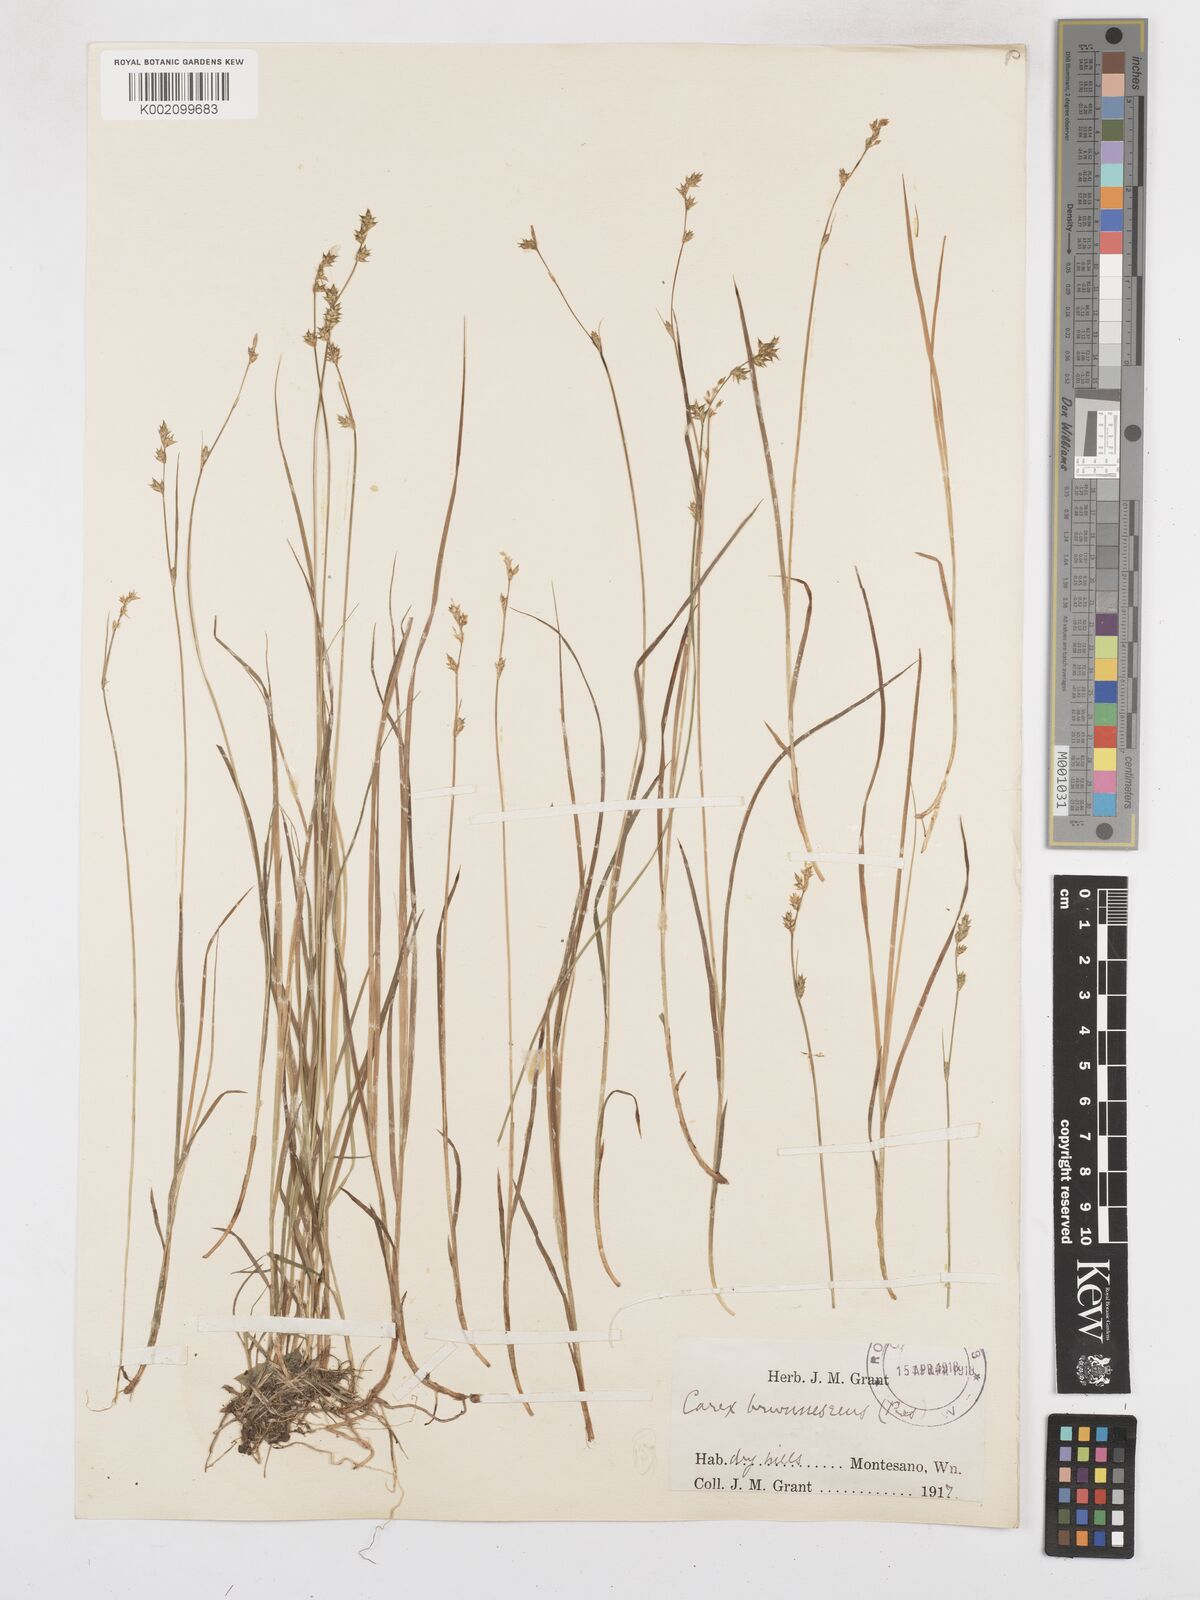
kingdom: Plantae
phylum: Tracheophyta
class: Liliopsida
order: Poales
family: Cyperaceae
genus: Carex
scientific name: Carex brunnescens
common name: Brown sedge
